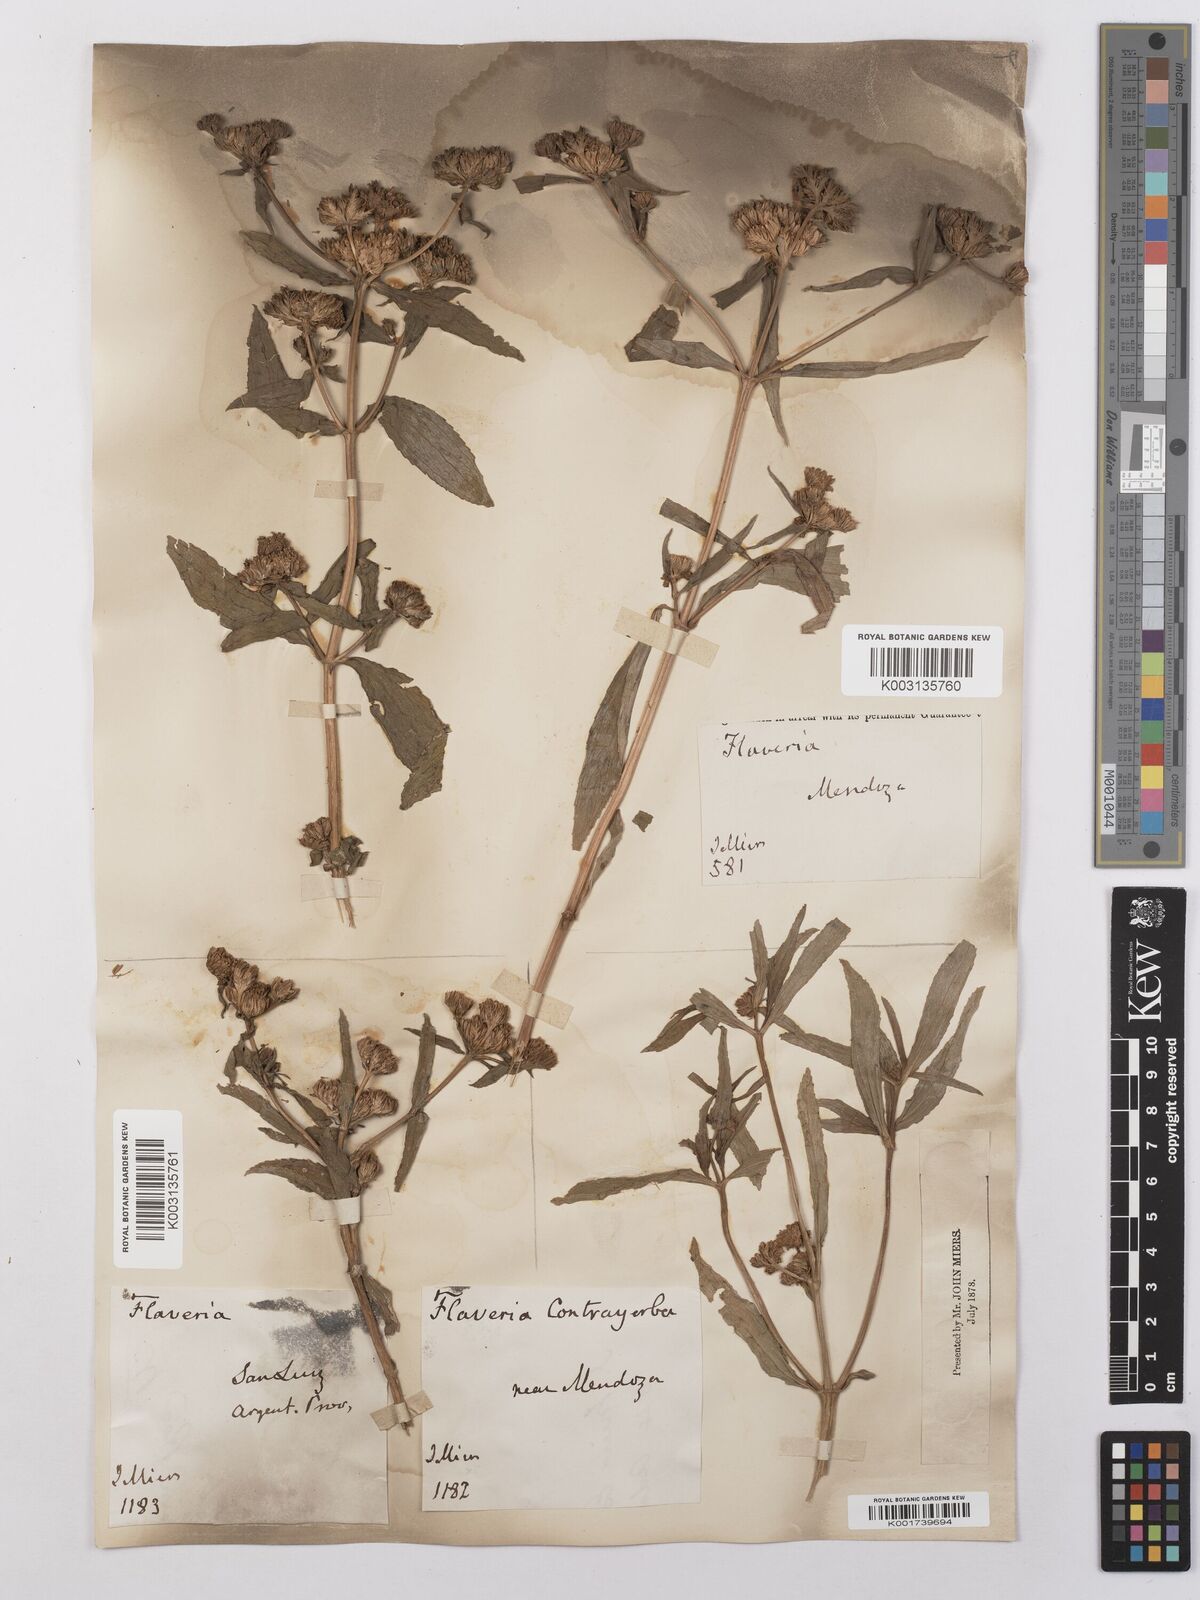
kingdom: Plantae
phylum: Tracheophyta
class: Magnoliopsida
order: Asterales
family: Asteraceae
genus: Flaveria
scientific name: Flaveria bidentis
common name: Coastal plain yellowtops
